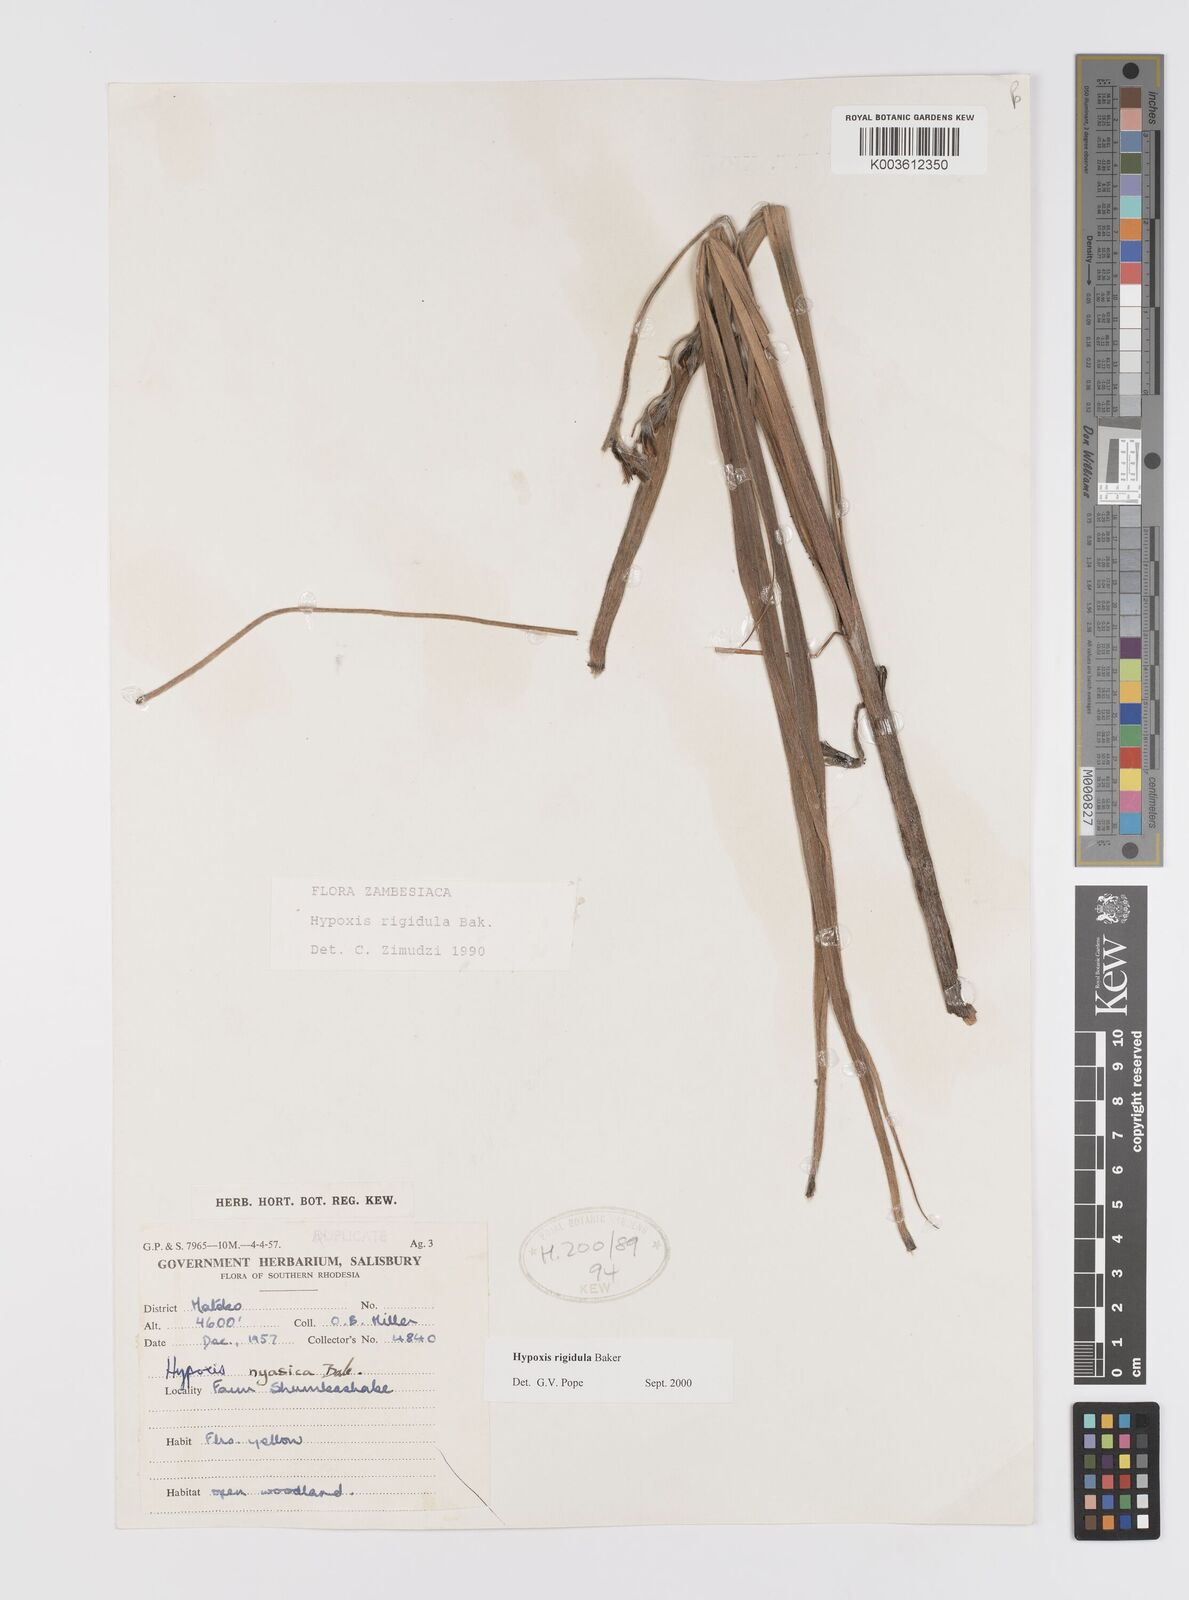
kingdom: Plantae
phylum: Tracheophyta
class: Liliopsida
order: Asparagales
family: Hypoxidaceae
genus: Hypoxis
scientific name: Hypoxis rigidula
